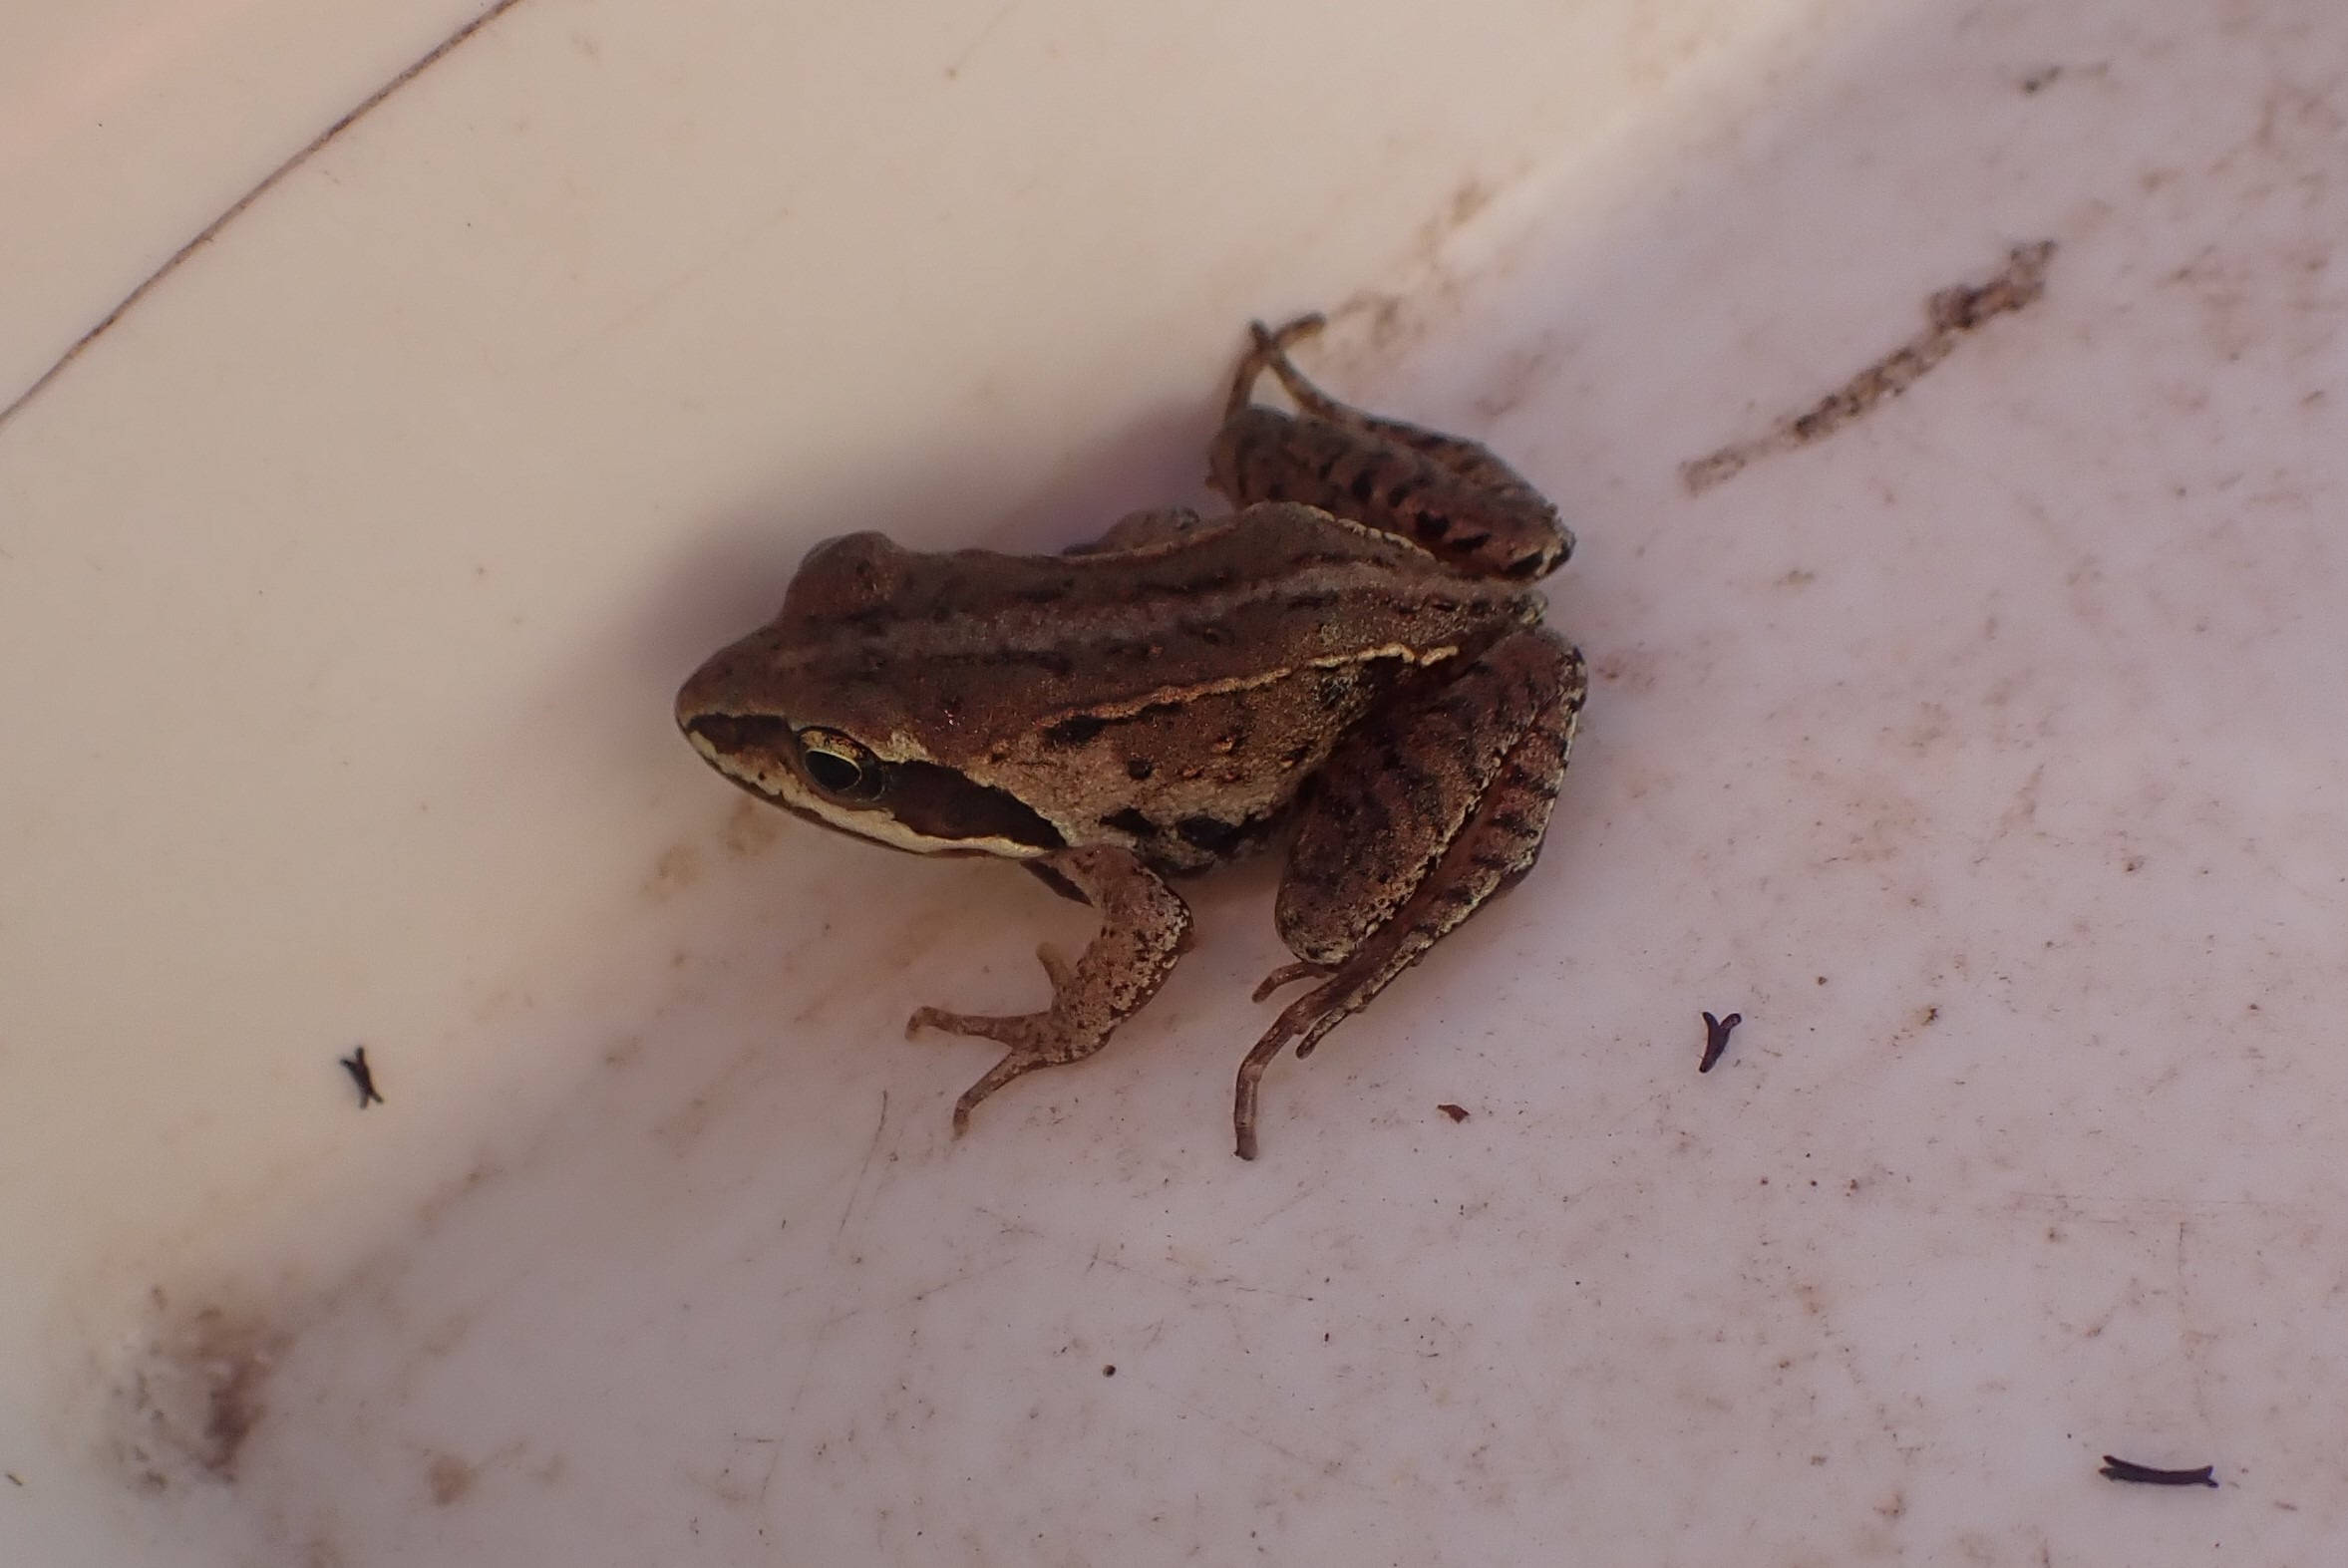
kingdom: Animalia
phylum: Chordata
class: Amphibia
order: Anura
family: Ranidae
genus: Rana
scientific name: Rana arvalis
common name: Spidssnudet frø
